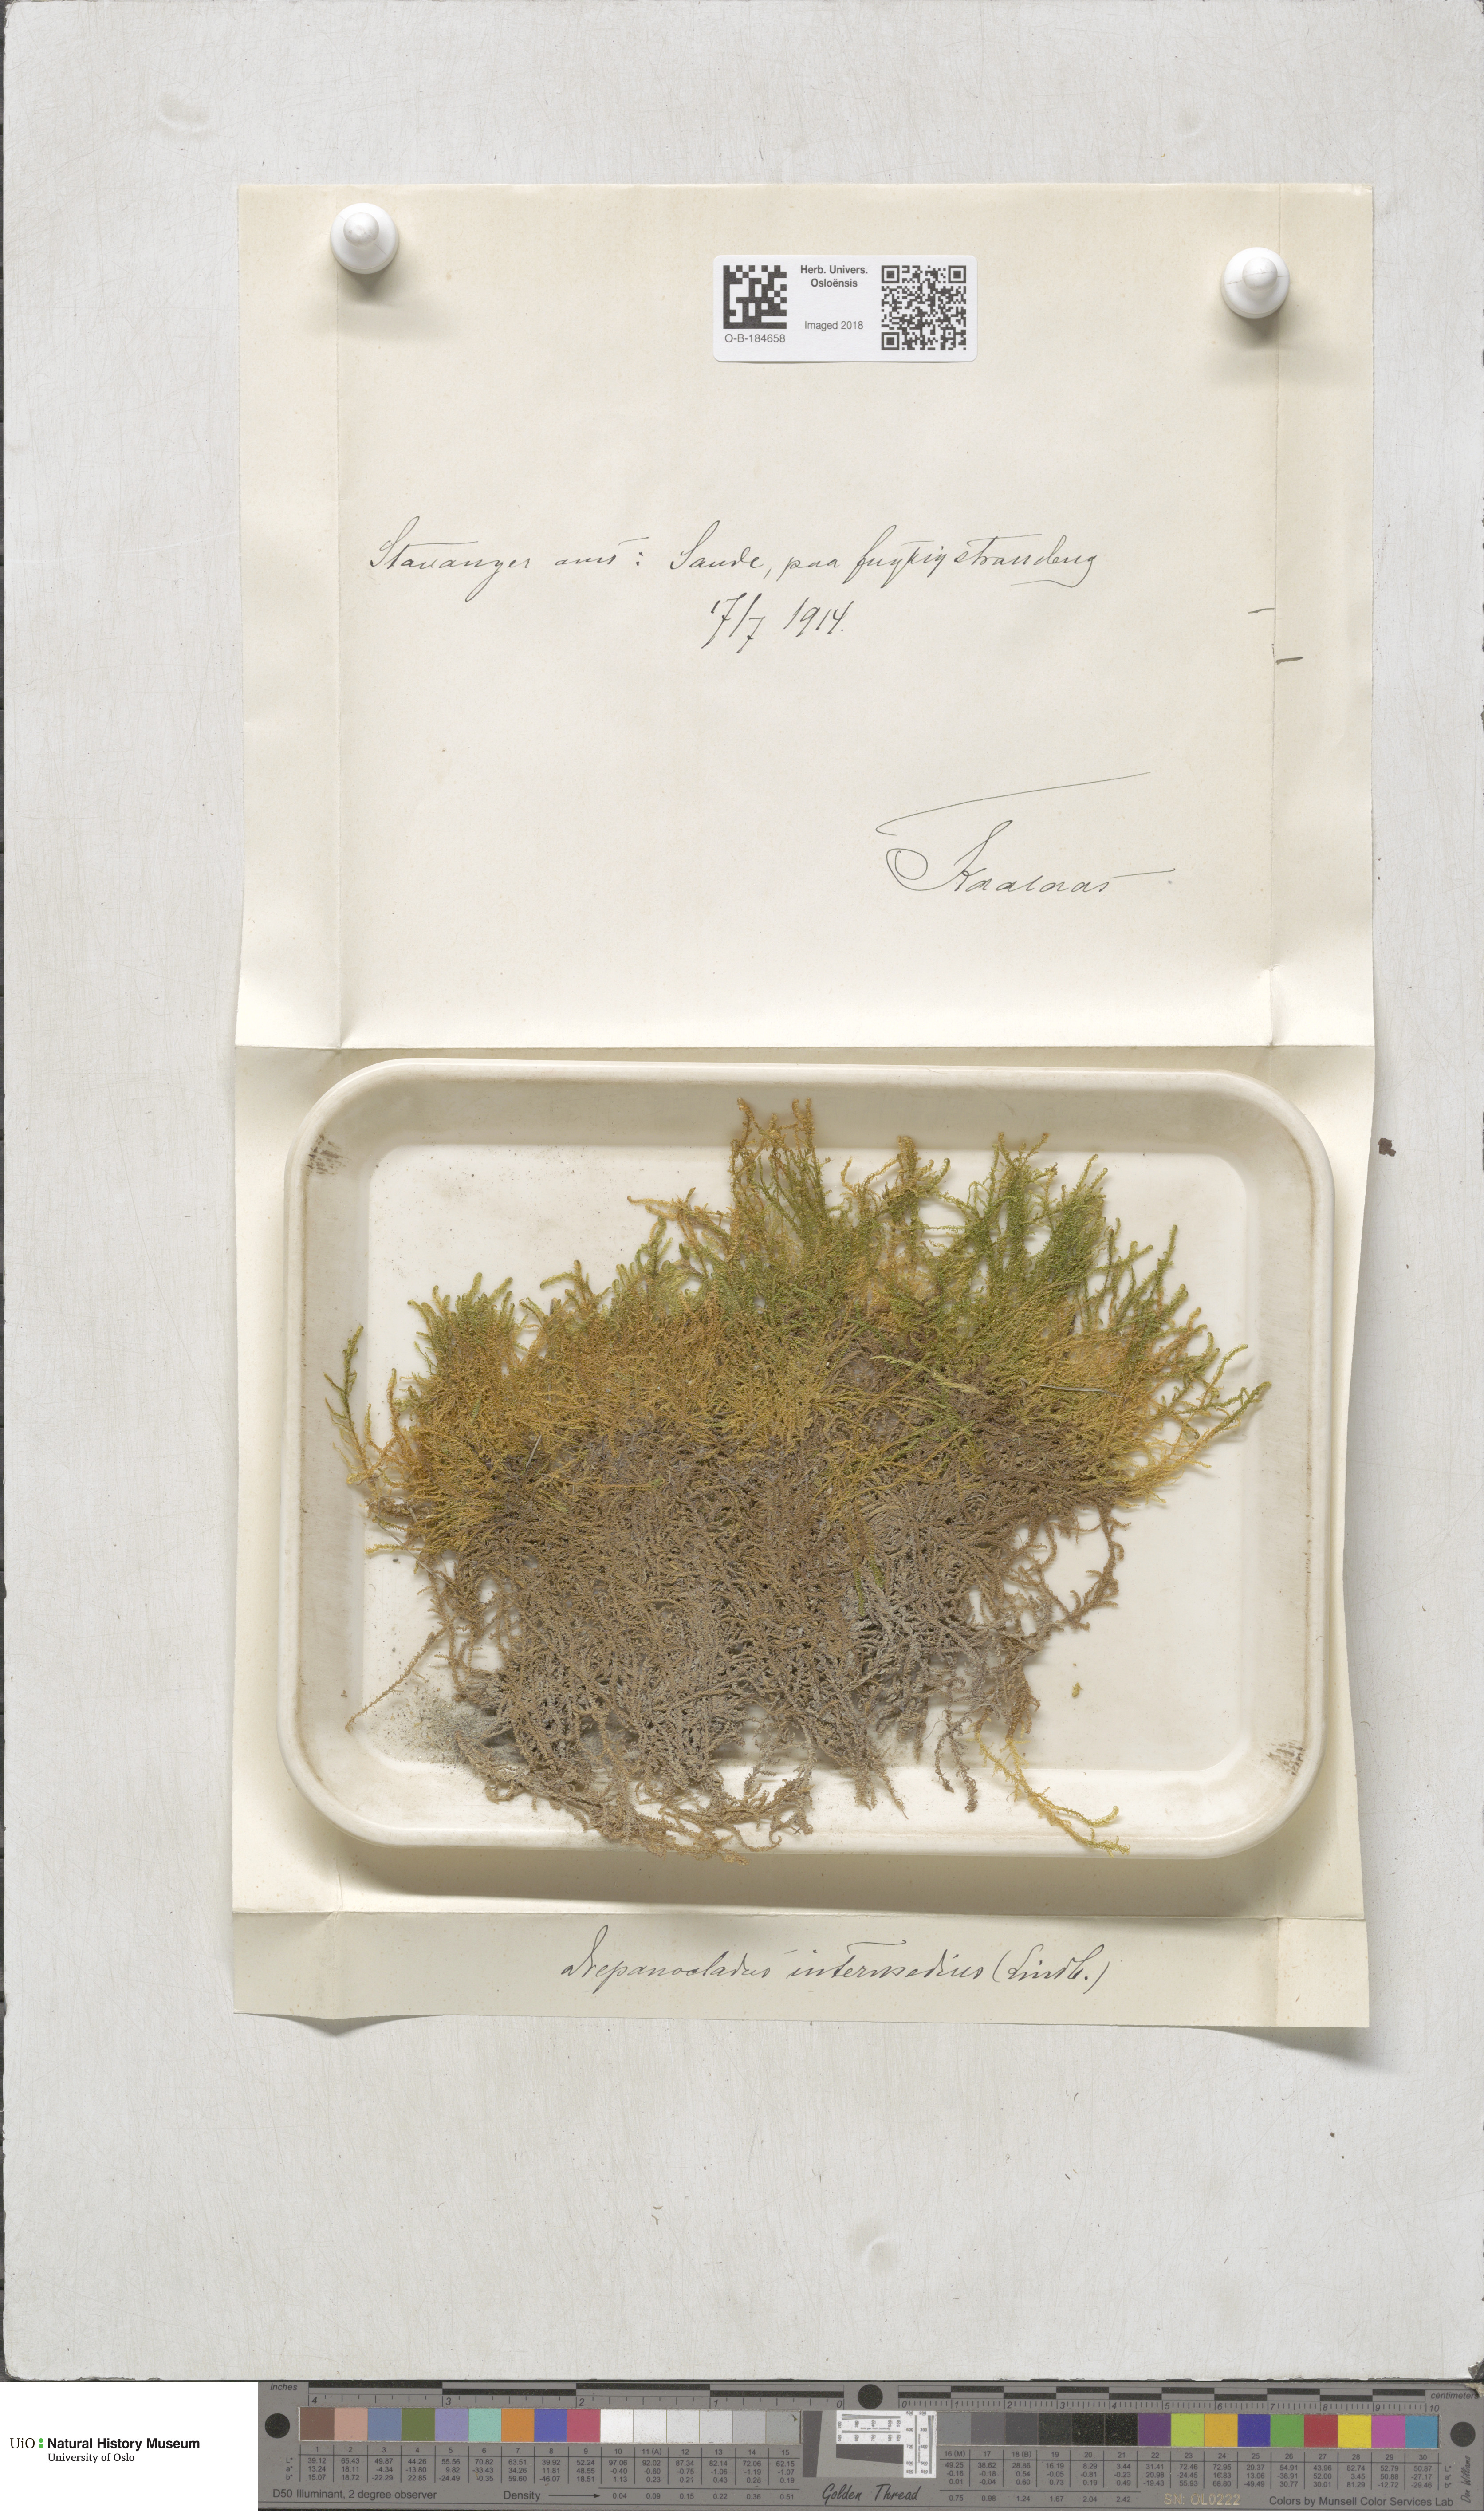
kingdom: Plantae
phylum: Bryophyta
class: Bryopsida
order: Hypnales
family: Scorpidiaceae
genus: Scorpidium
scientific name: Scorpidium cossonii
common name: Cosson's hook moss
